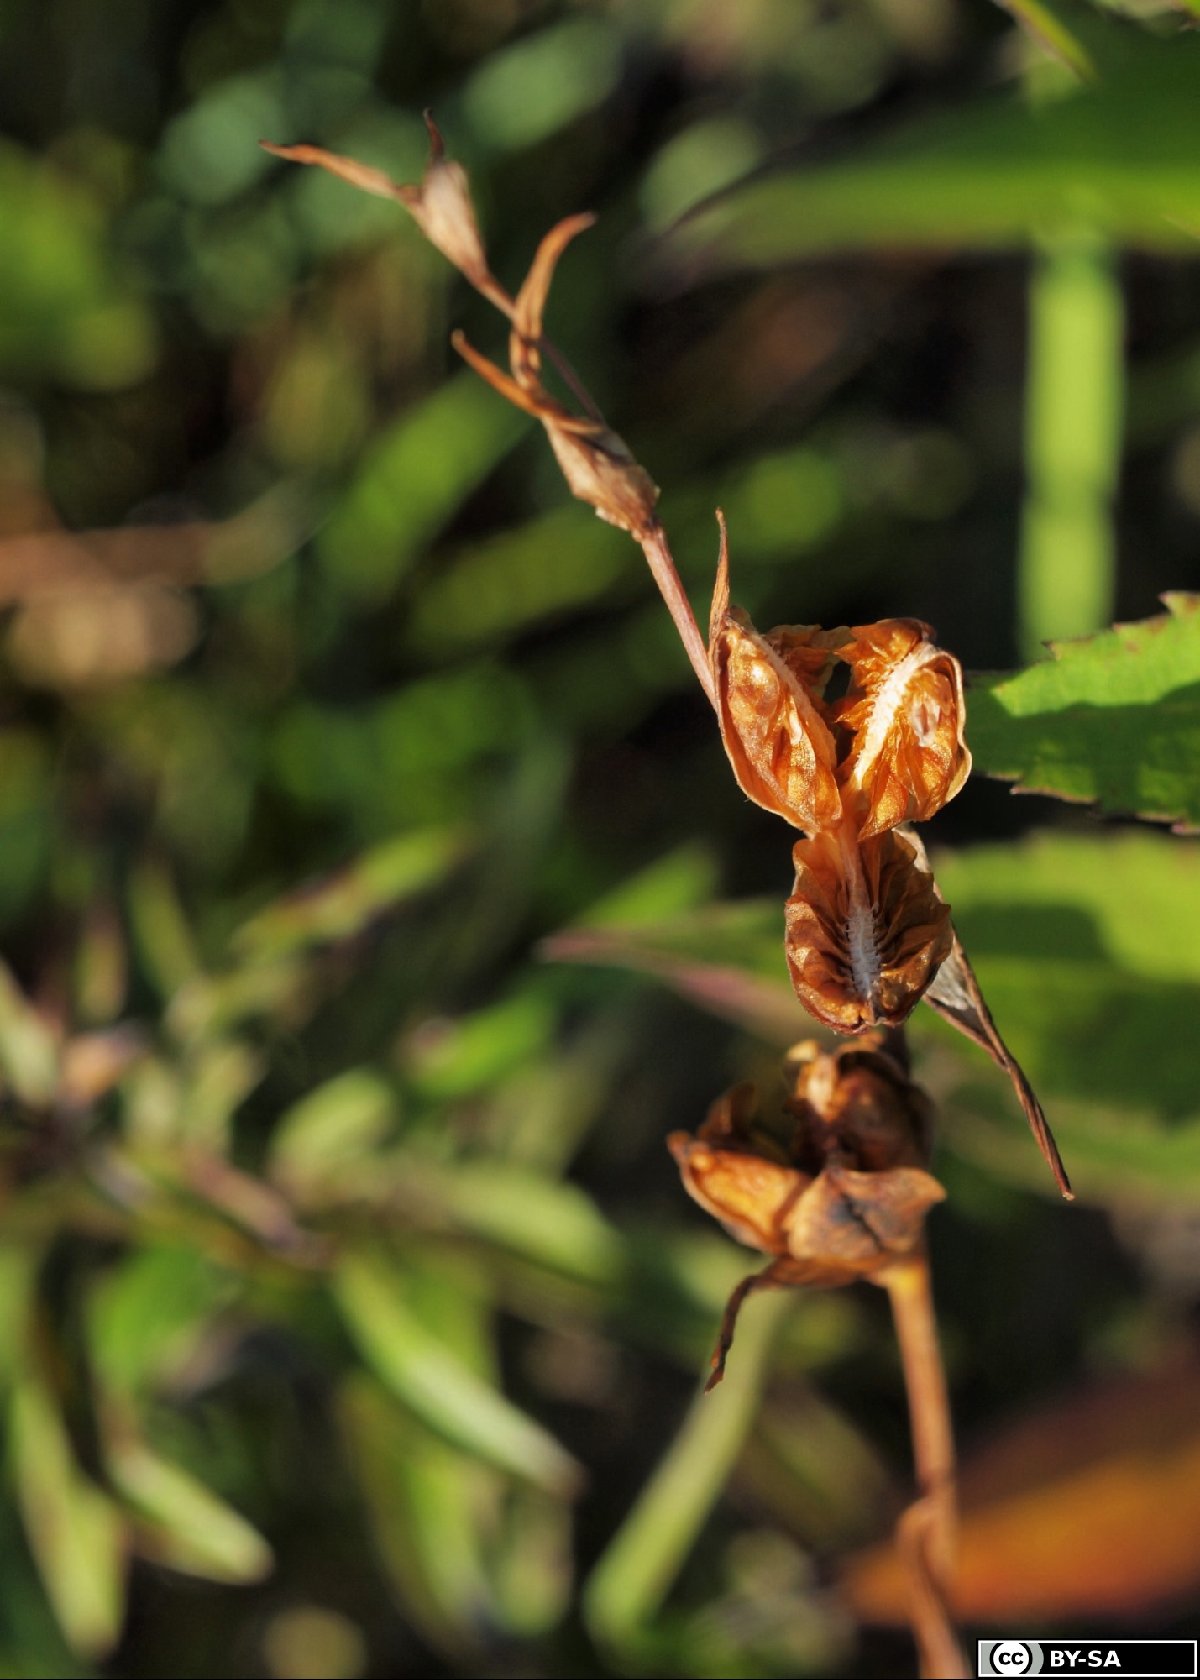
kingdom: Plantae
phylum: Tracheophyta
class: Liliopsida
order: Asparagales
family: Iridaceae
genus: Gladiolus
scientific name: Gladiolus palustris
